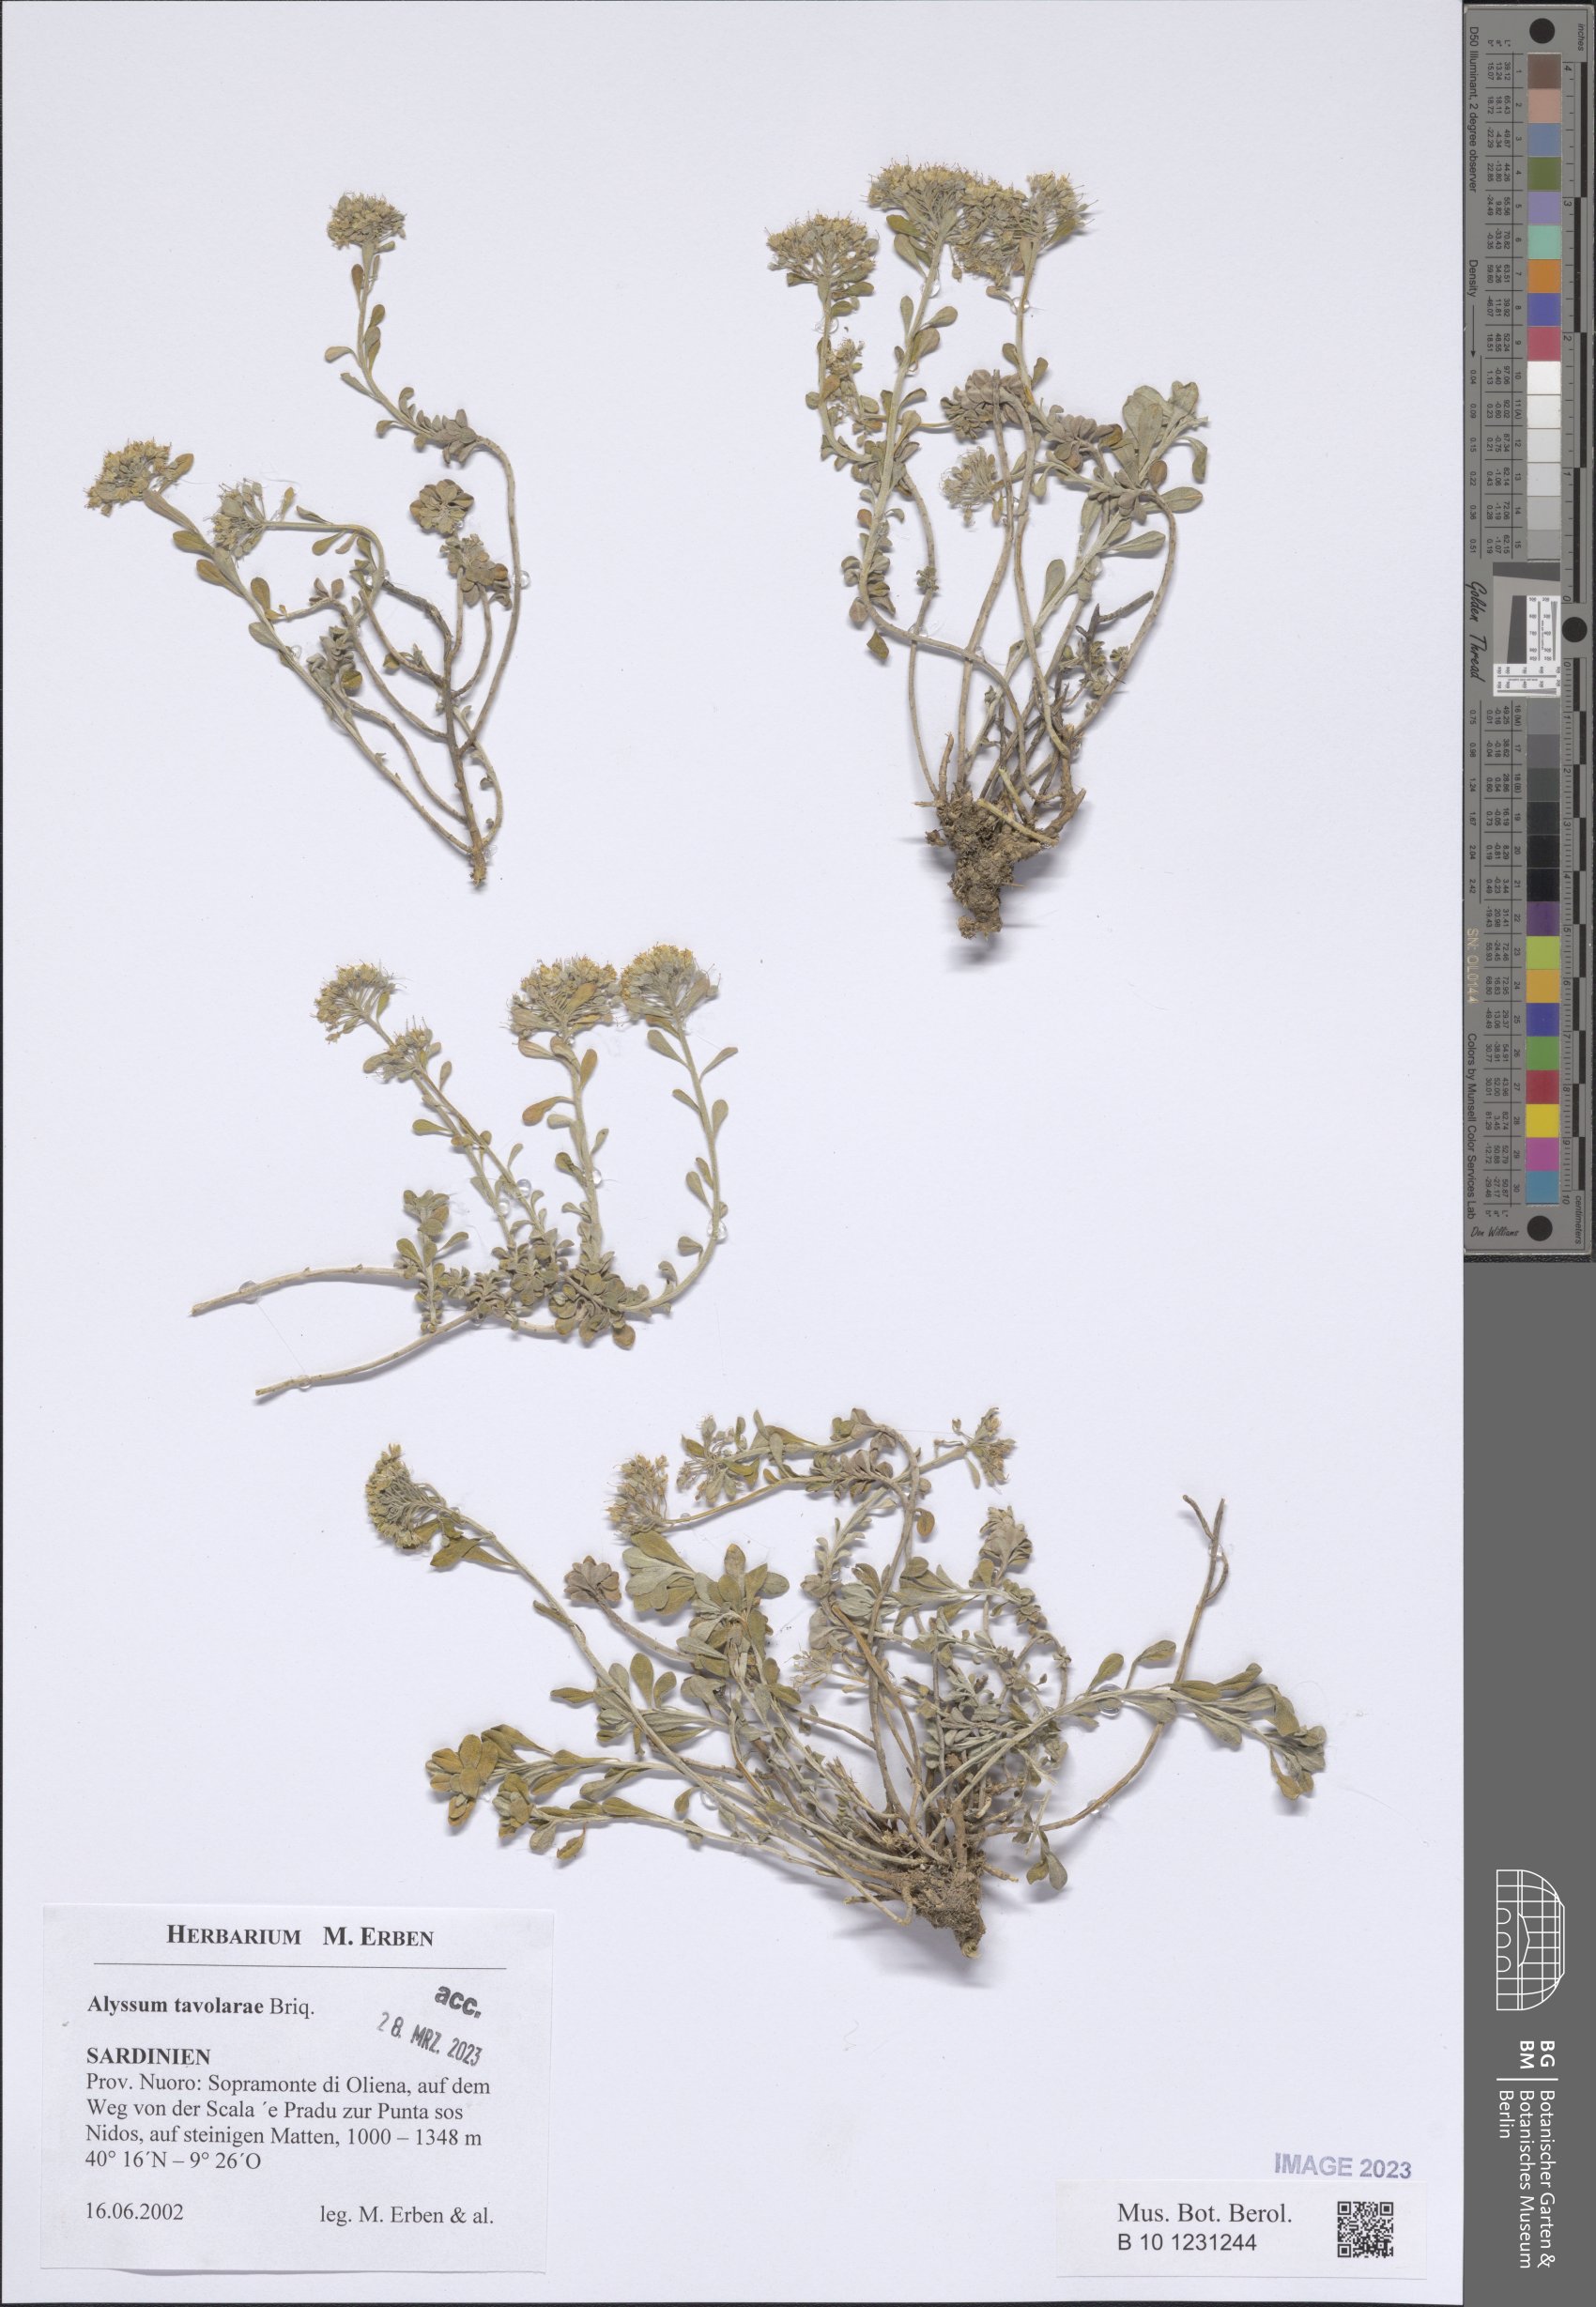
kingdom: Plantae
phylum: Tracheophyta
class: Magnoliopsida
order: Brassicales
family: Brassicaceae
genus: Odontarrhena
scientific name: Odontarrhena tavolarae
